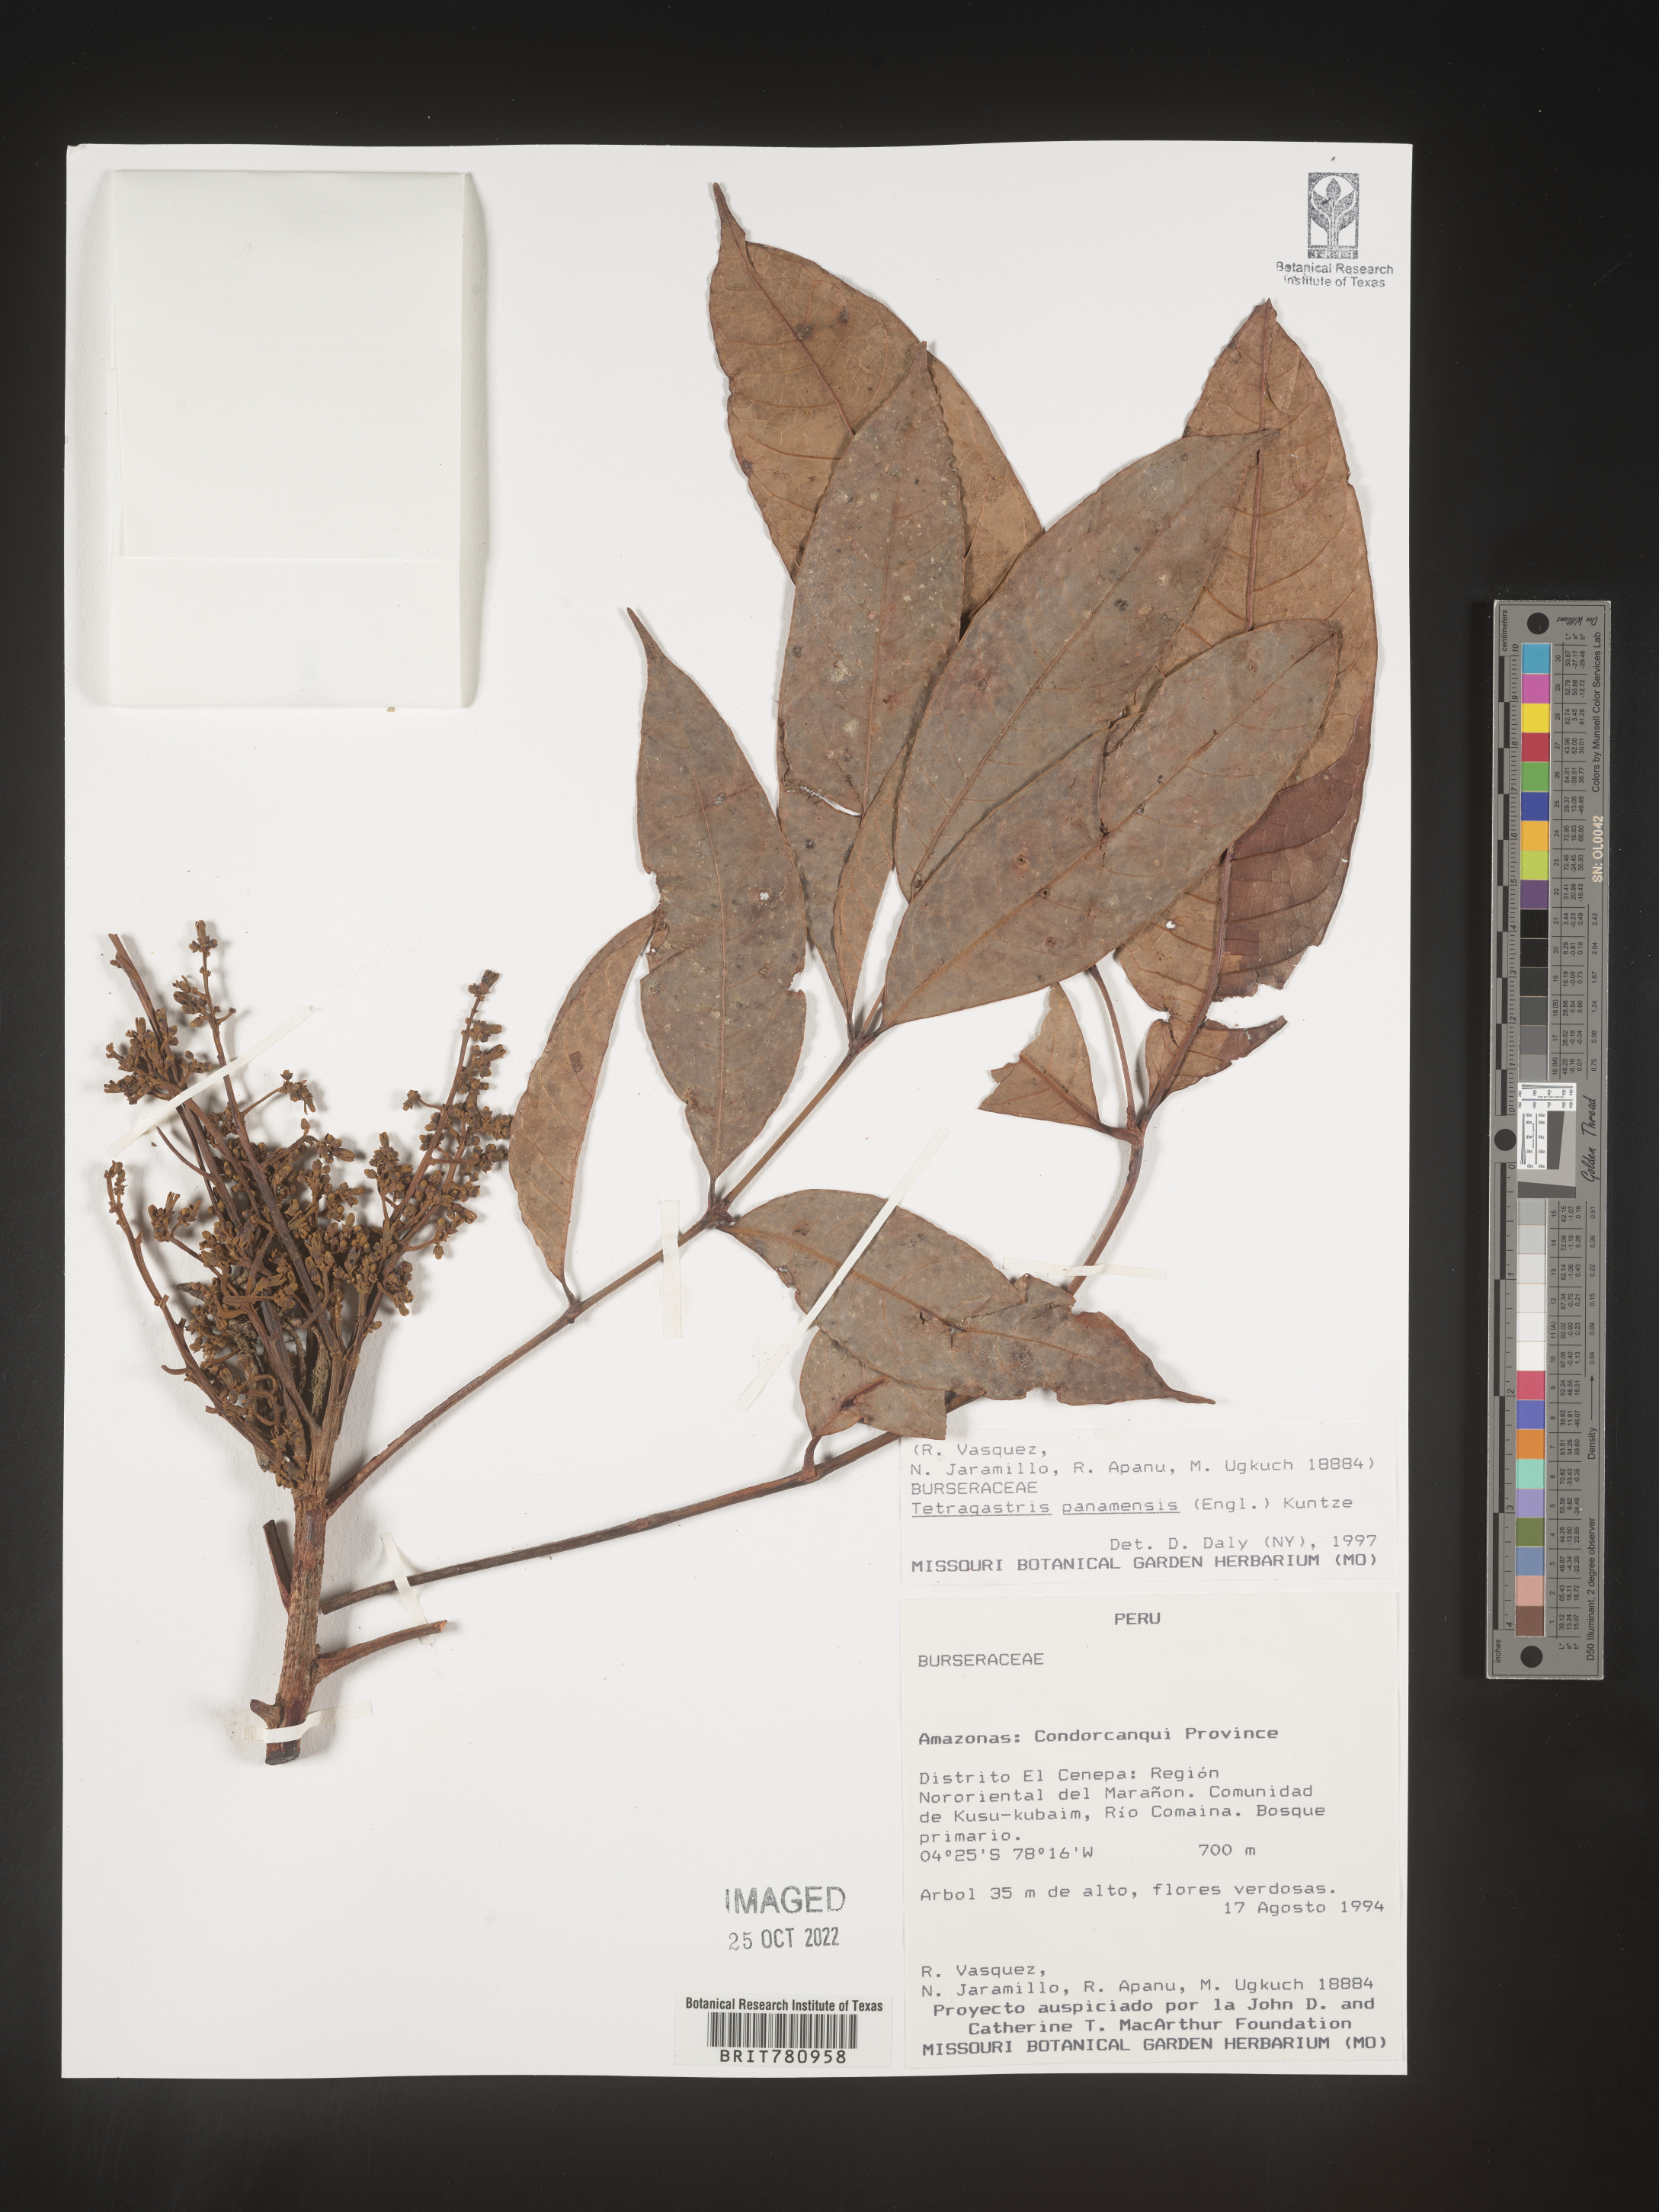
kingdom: Plantae
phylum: Tracheophyta
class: Magnoliopsida
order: Sapindales
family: Burseraceae
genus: Tetragastris
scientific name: Tetragastris
